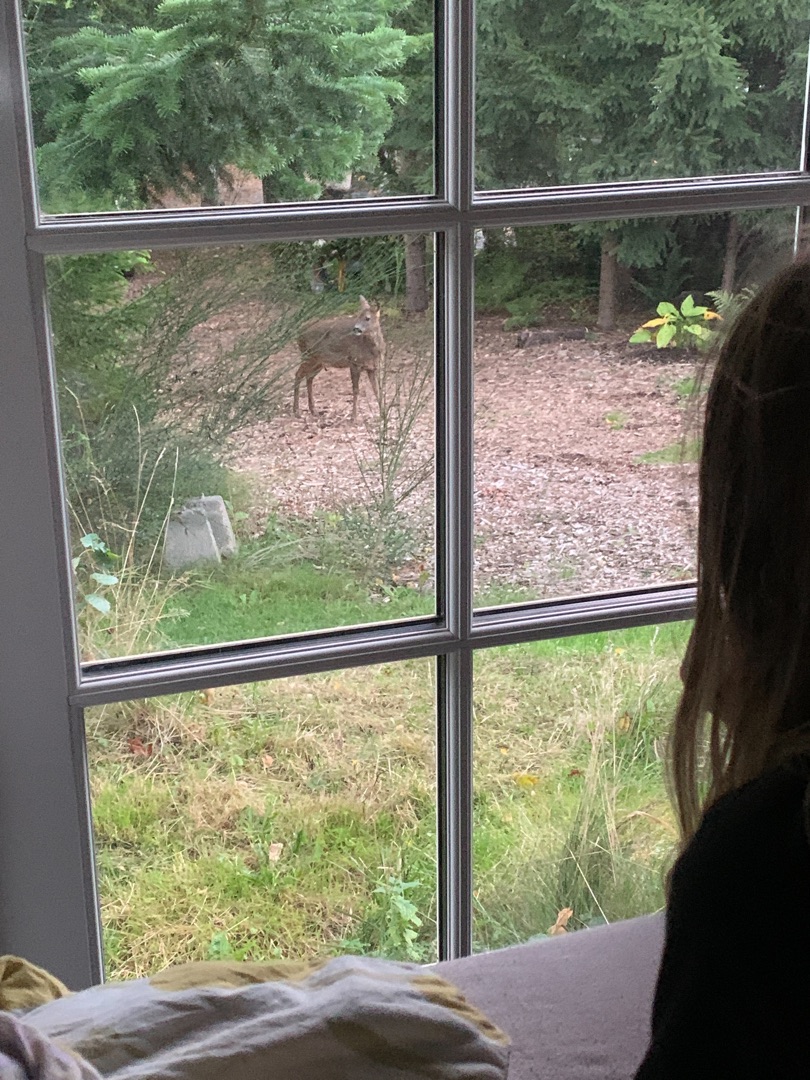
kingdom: Animalia
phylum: Chordata
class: Mammalia
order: Artiodactyla
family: Cervidae
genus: Capreolus
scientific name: Capreolus capreolus
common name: Rådyr
